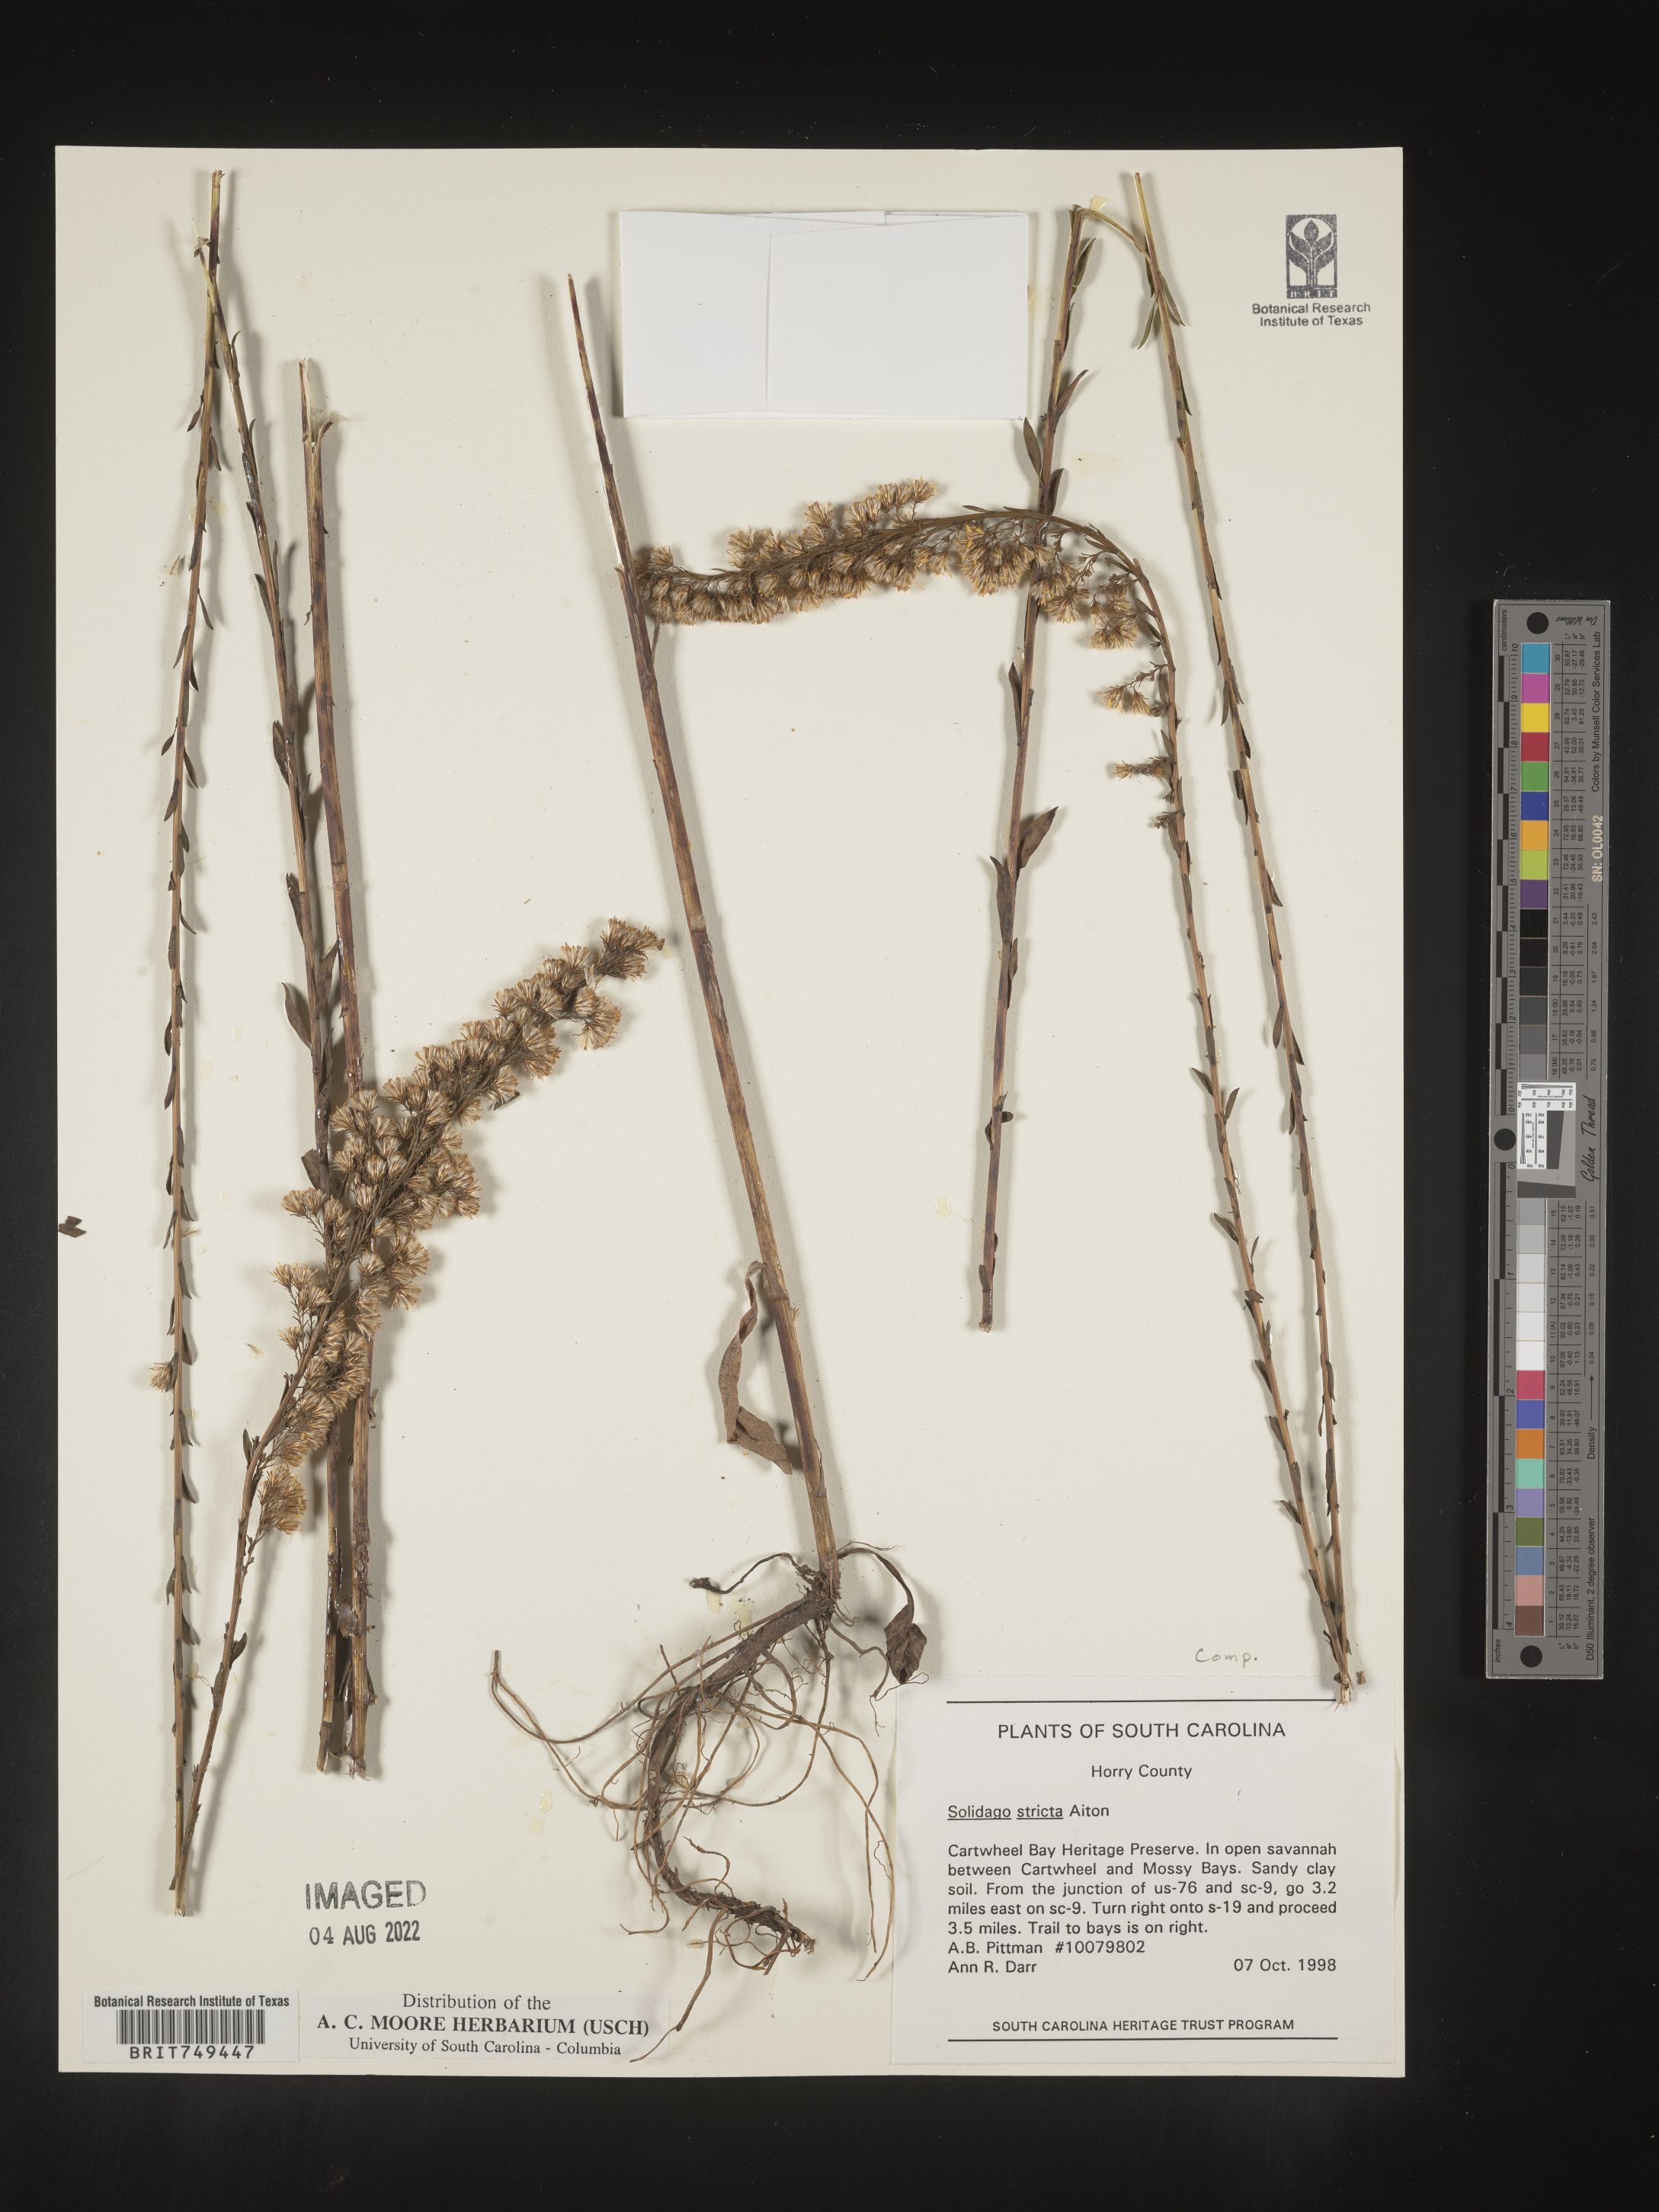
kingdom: Plantae
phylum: Tracheophyta
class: Magnoliopsida
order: Asterales
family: Asteraceae
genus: Solidago
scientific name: Solidago stricta
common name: Pine barren bog goldenrod
